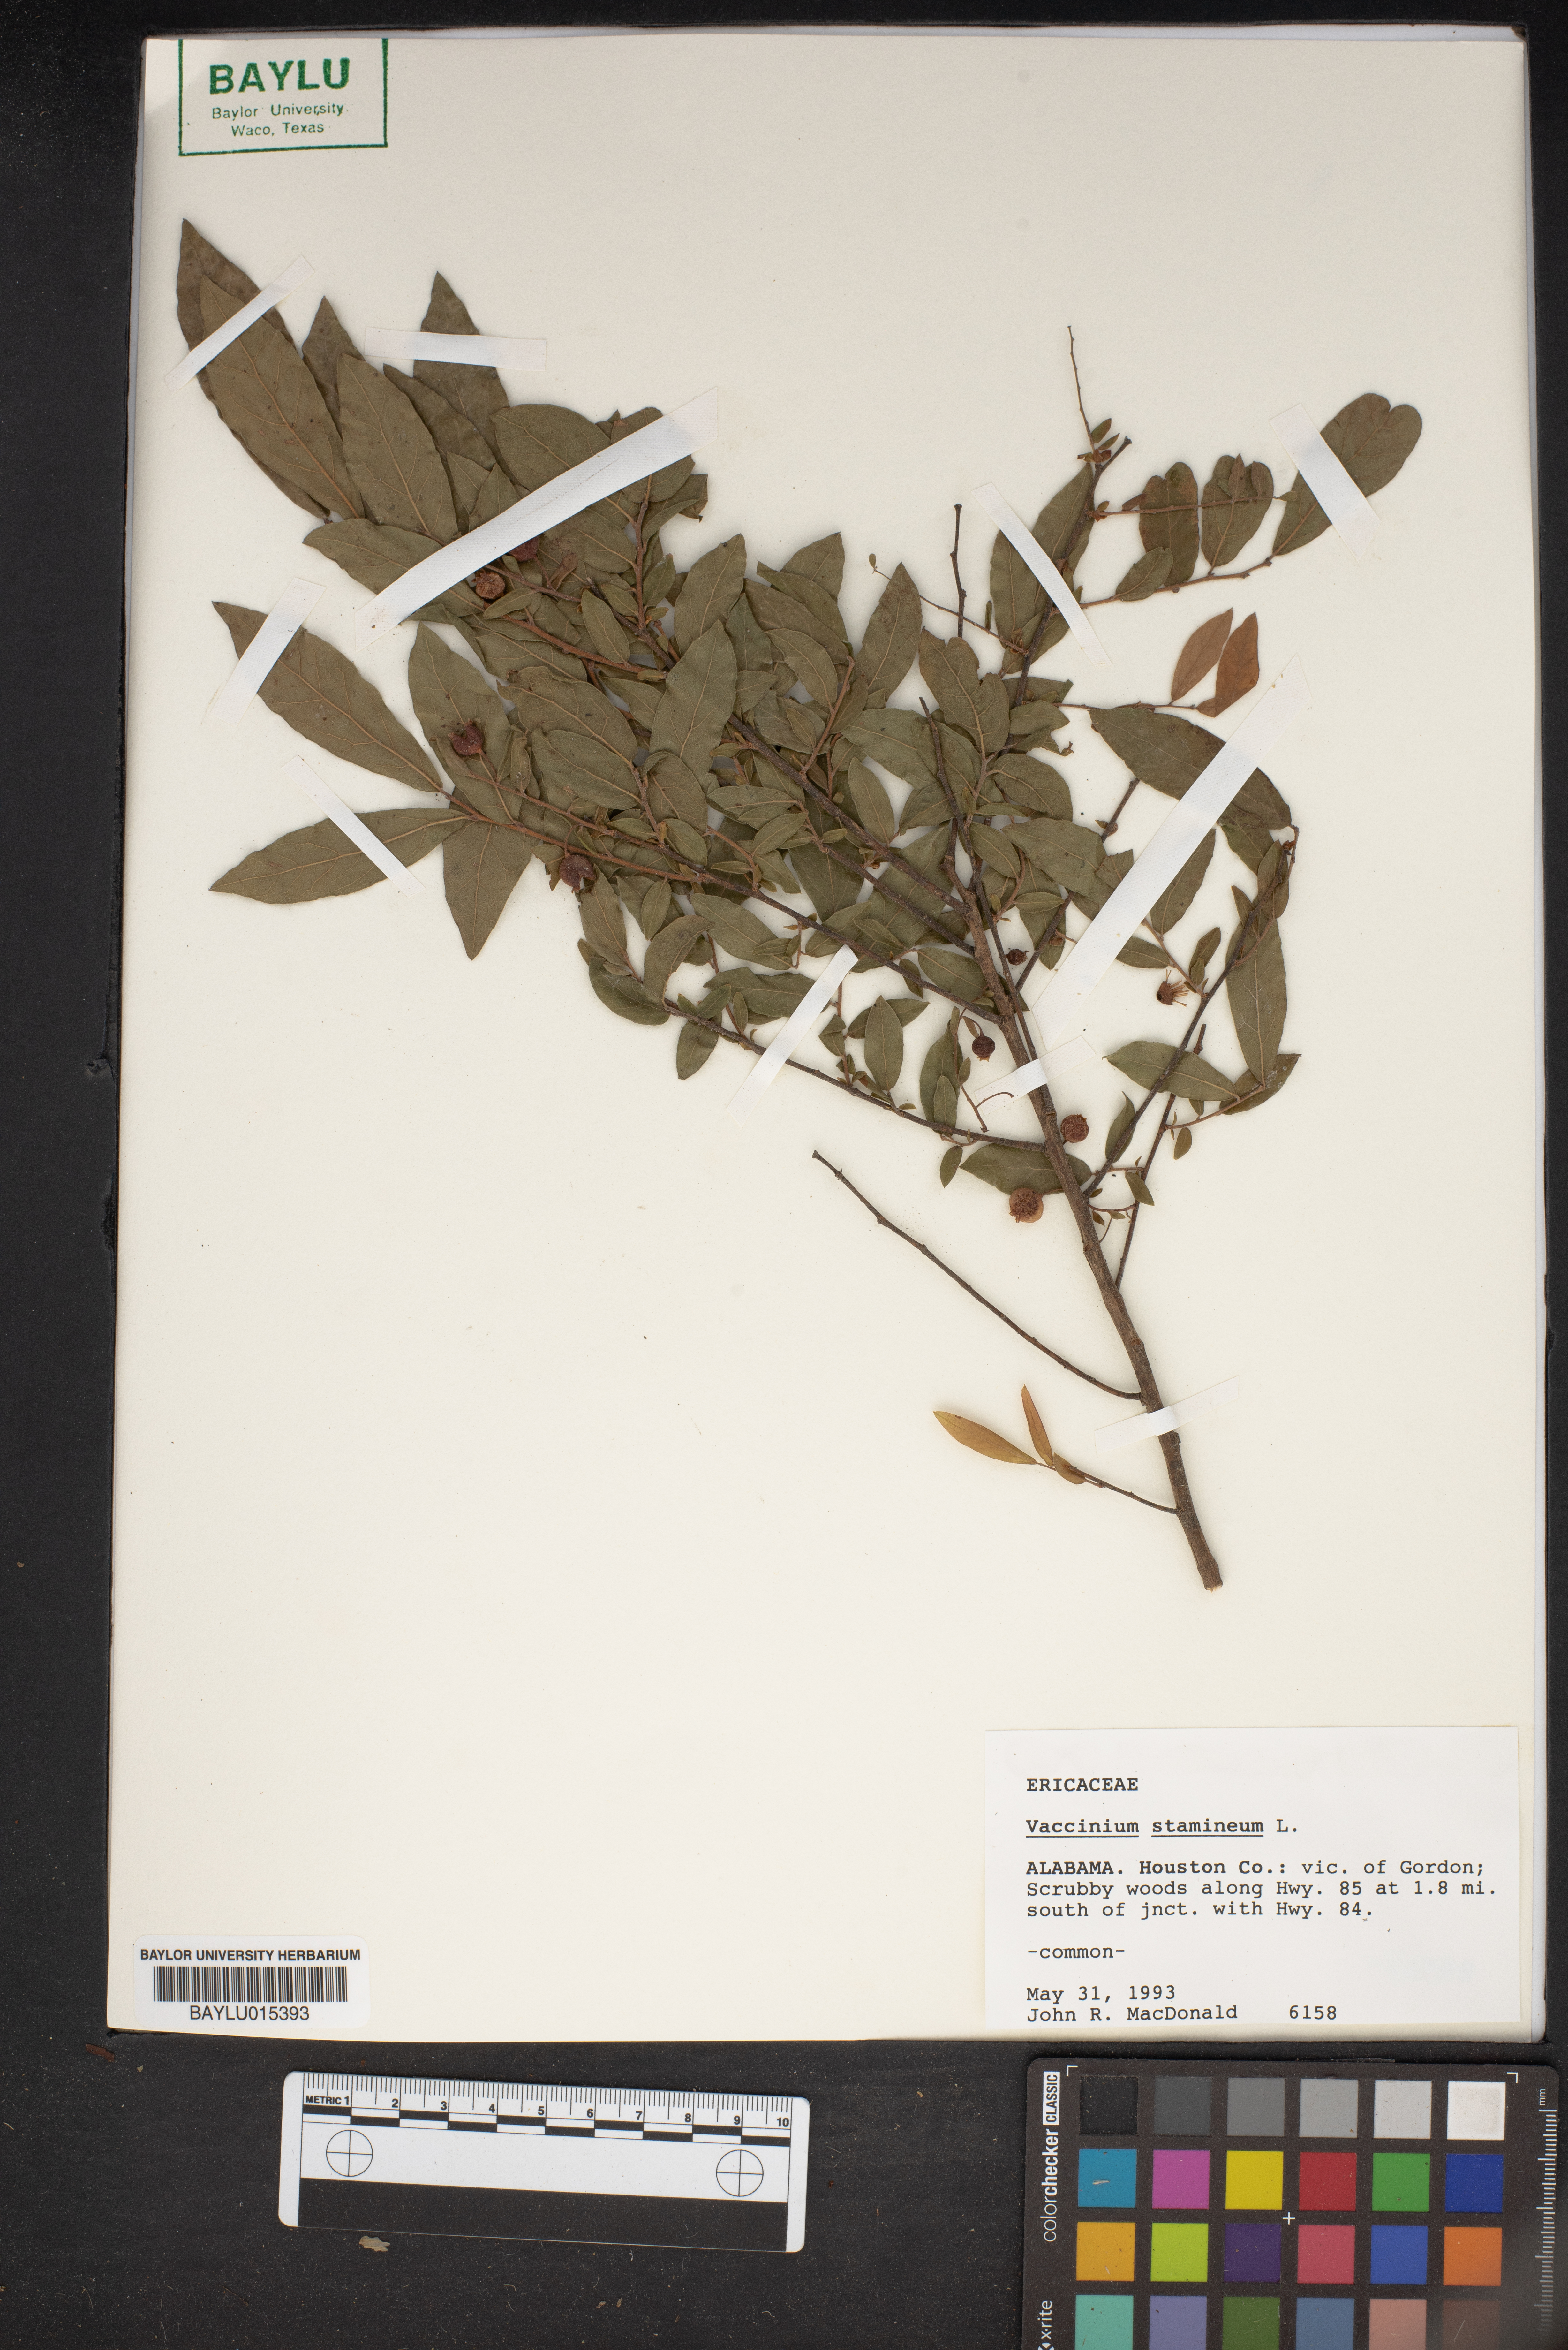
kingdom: Plantae
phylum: Tracheophyta
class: Magnoliopsida
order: Ericales
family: Ericaceae
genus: Vaccinium
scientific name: Vaccinium stamineum
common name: Deerberry
